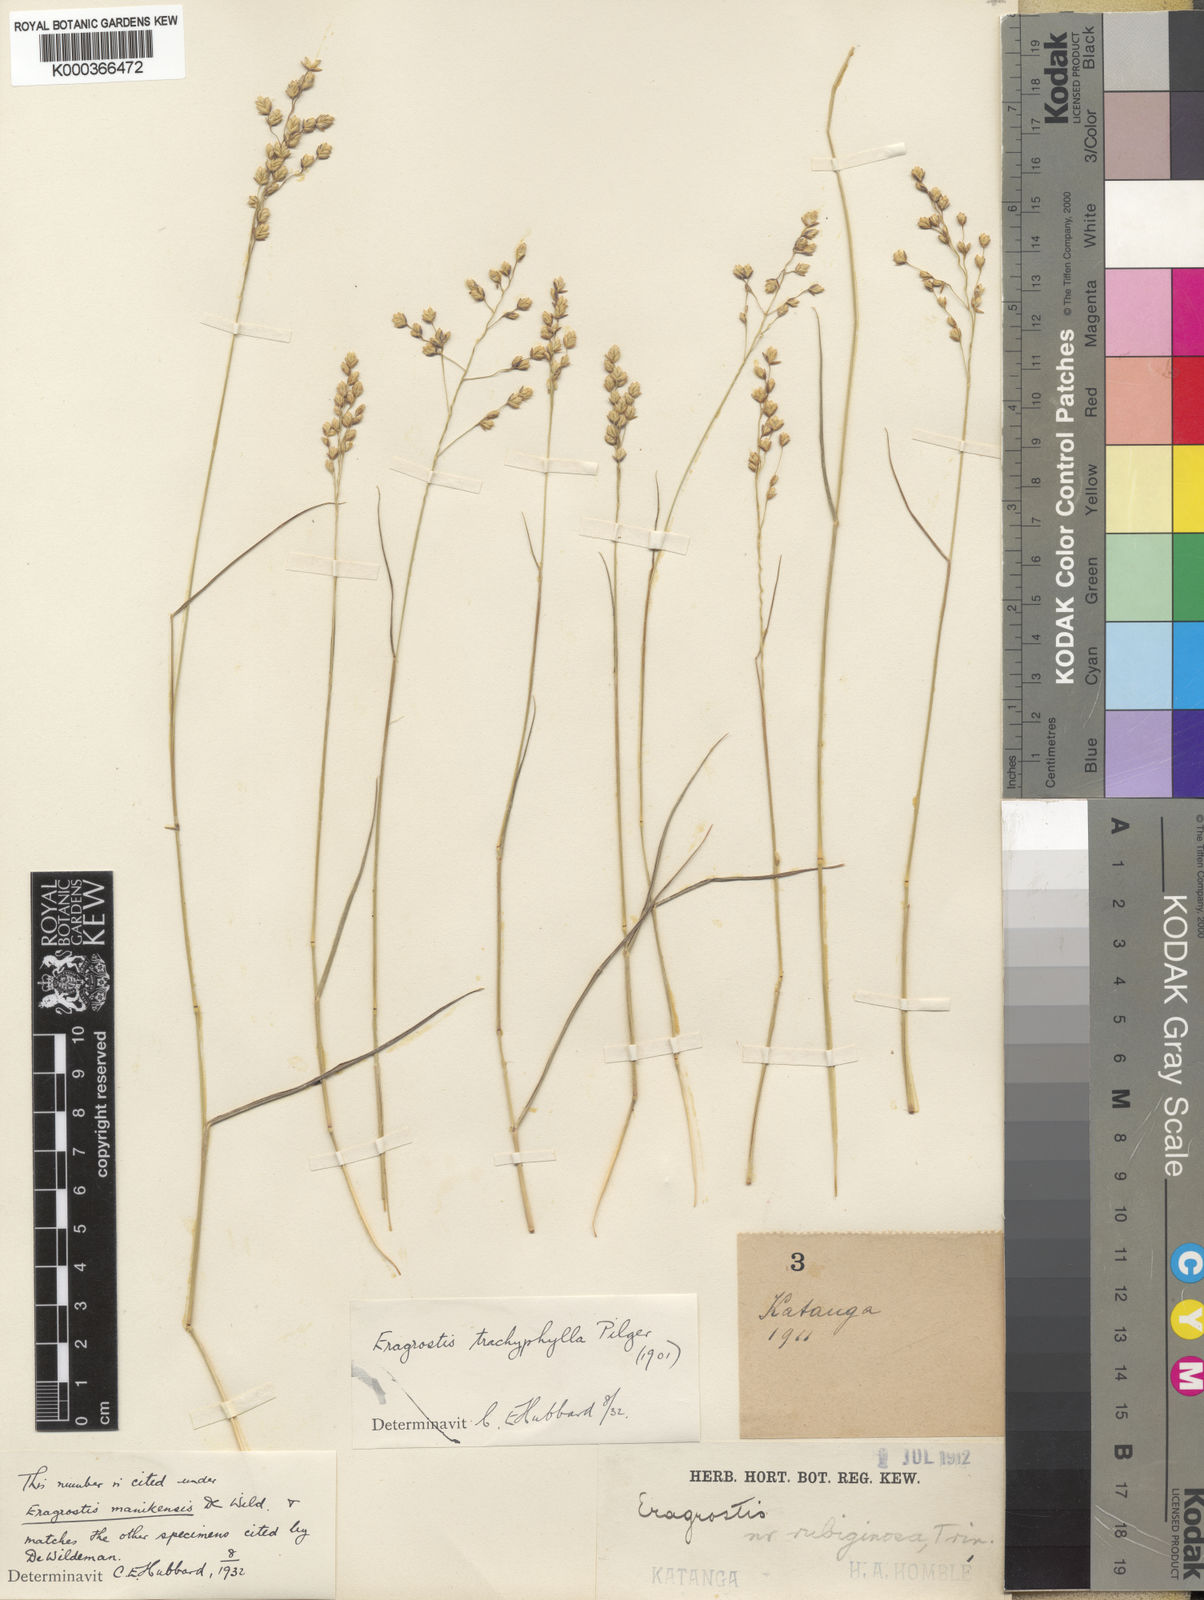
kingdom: Plantae
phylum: Tracheophyta
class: Liliopsida
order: Poales
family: Poaceae
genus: Eragrostis
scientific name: Eragrostis capensis
